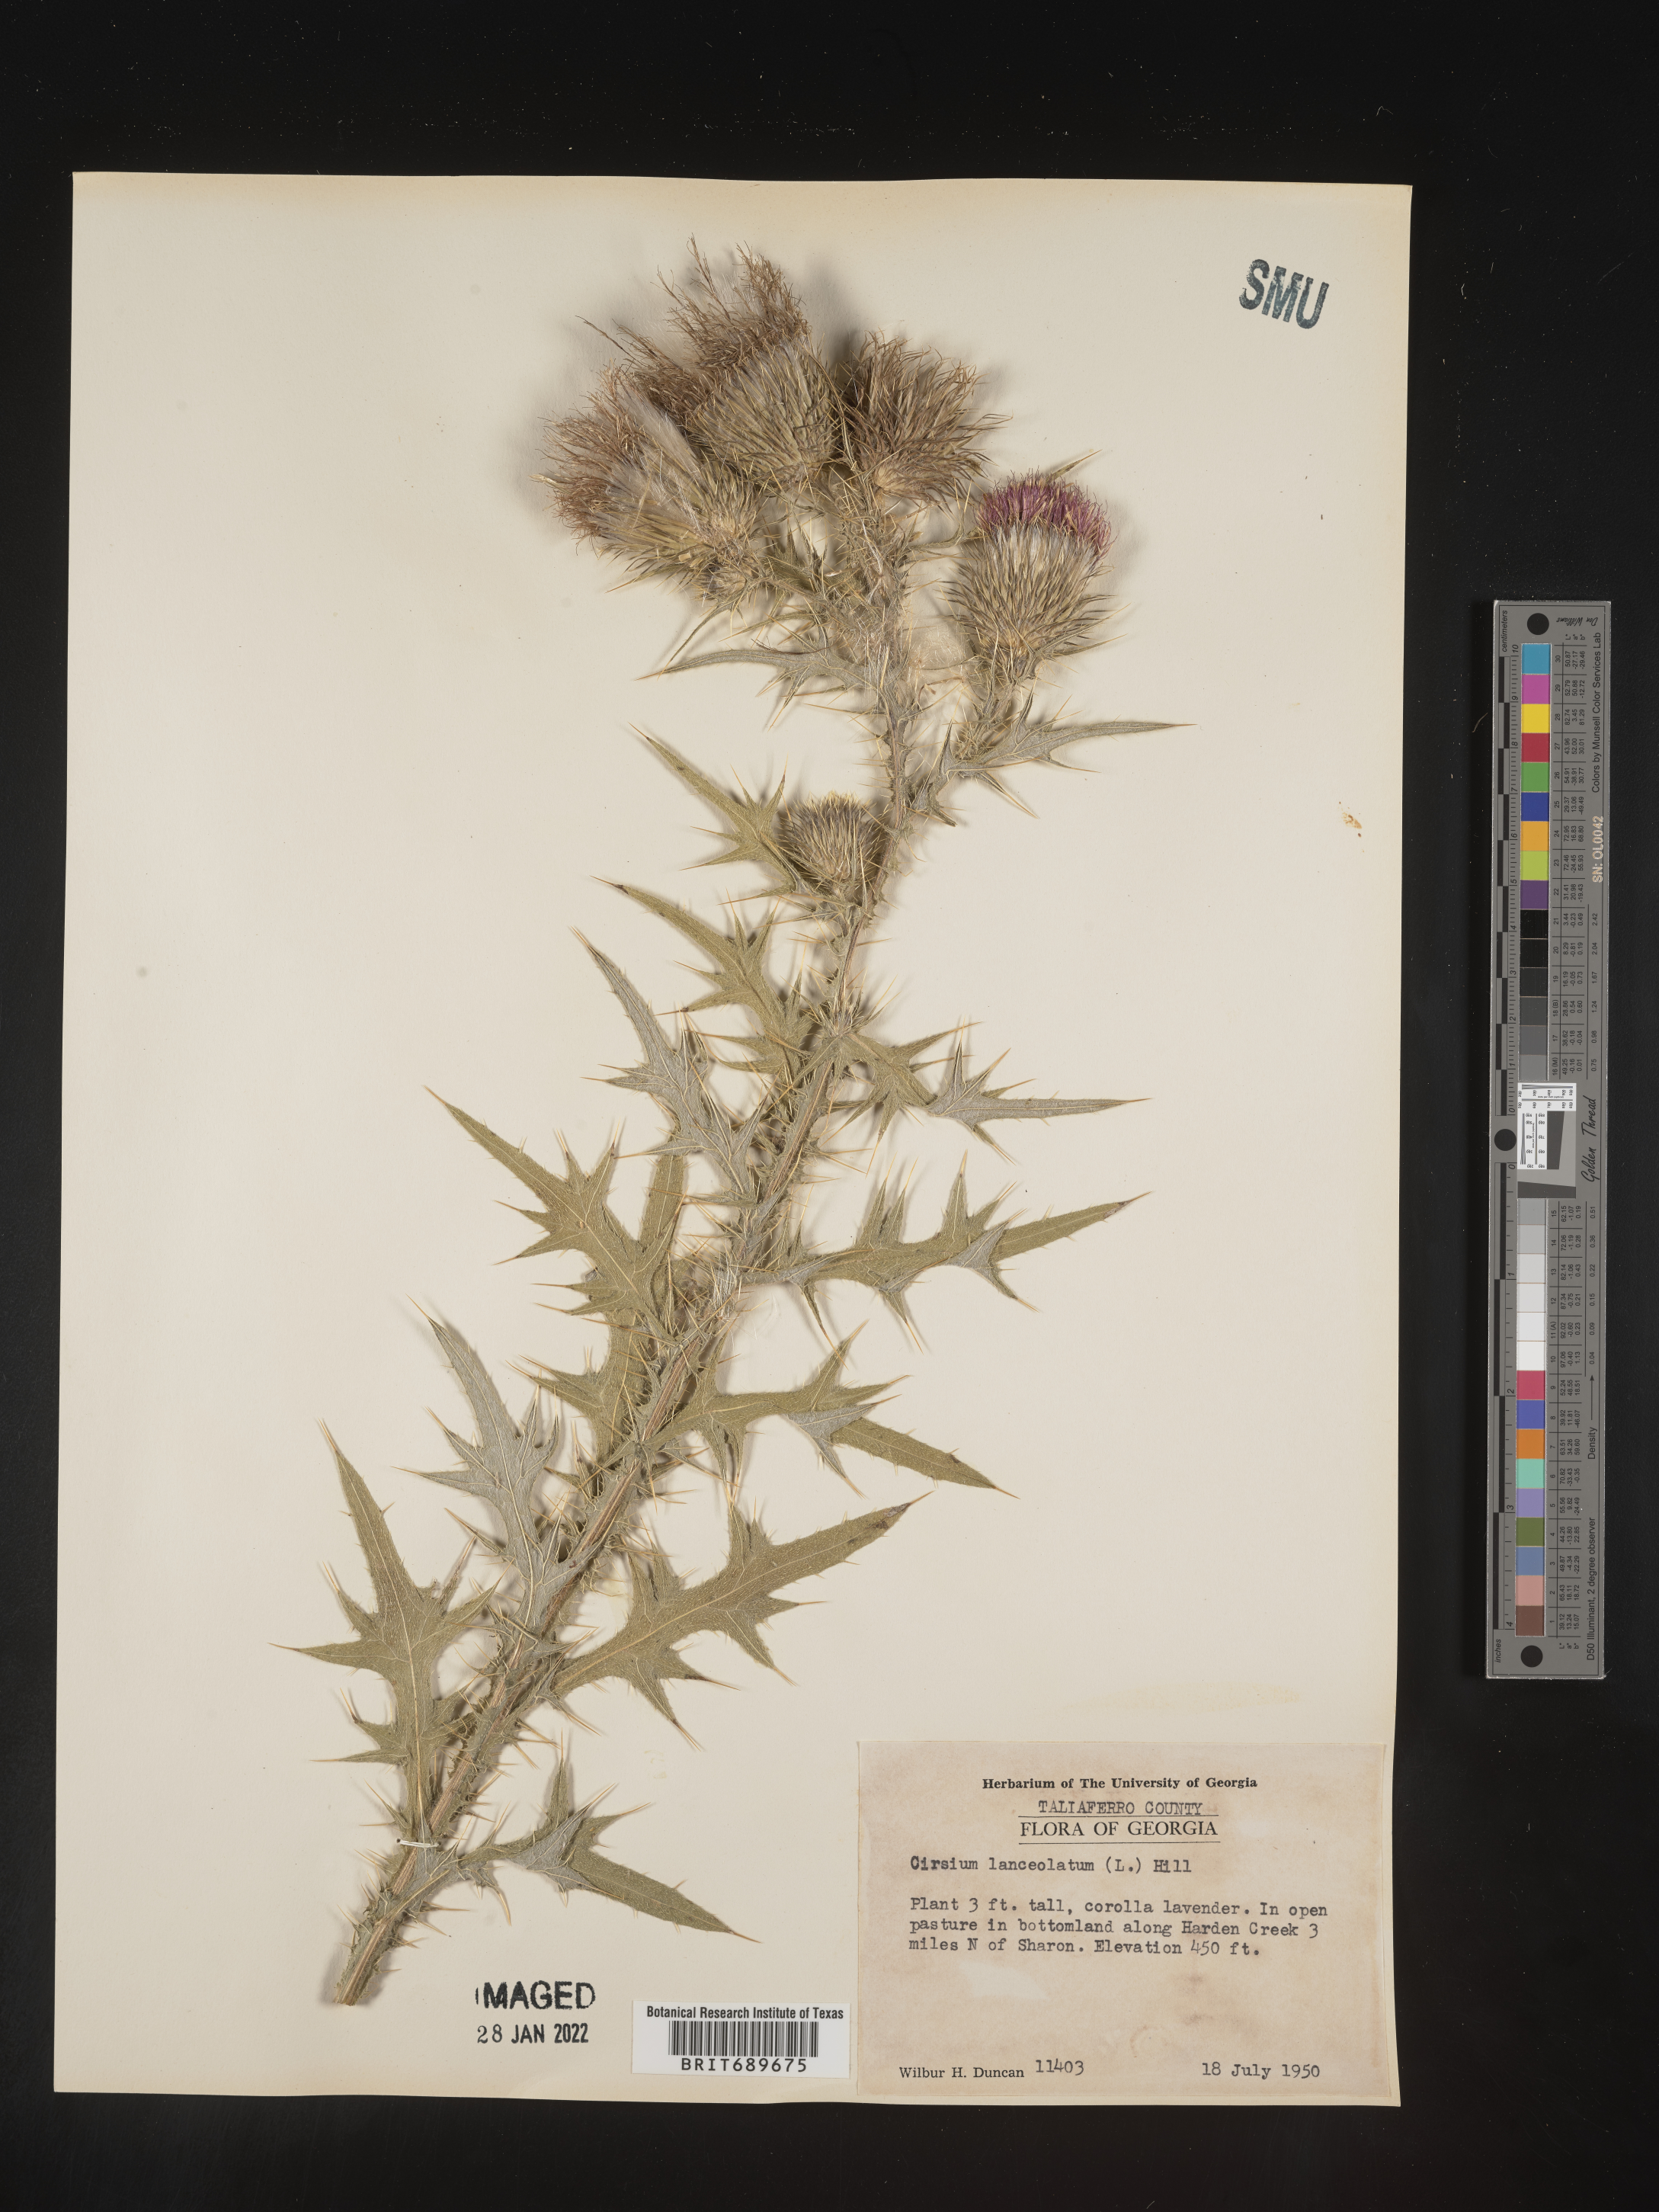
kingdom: Plantae
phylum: Tracheophyta
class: Magnoliopsida
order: Asterales
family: Asteraceae
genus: Cirsium
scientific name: Cirsium
